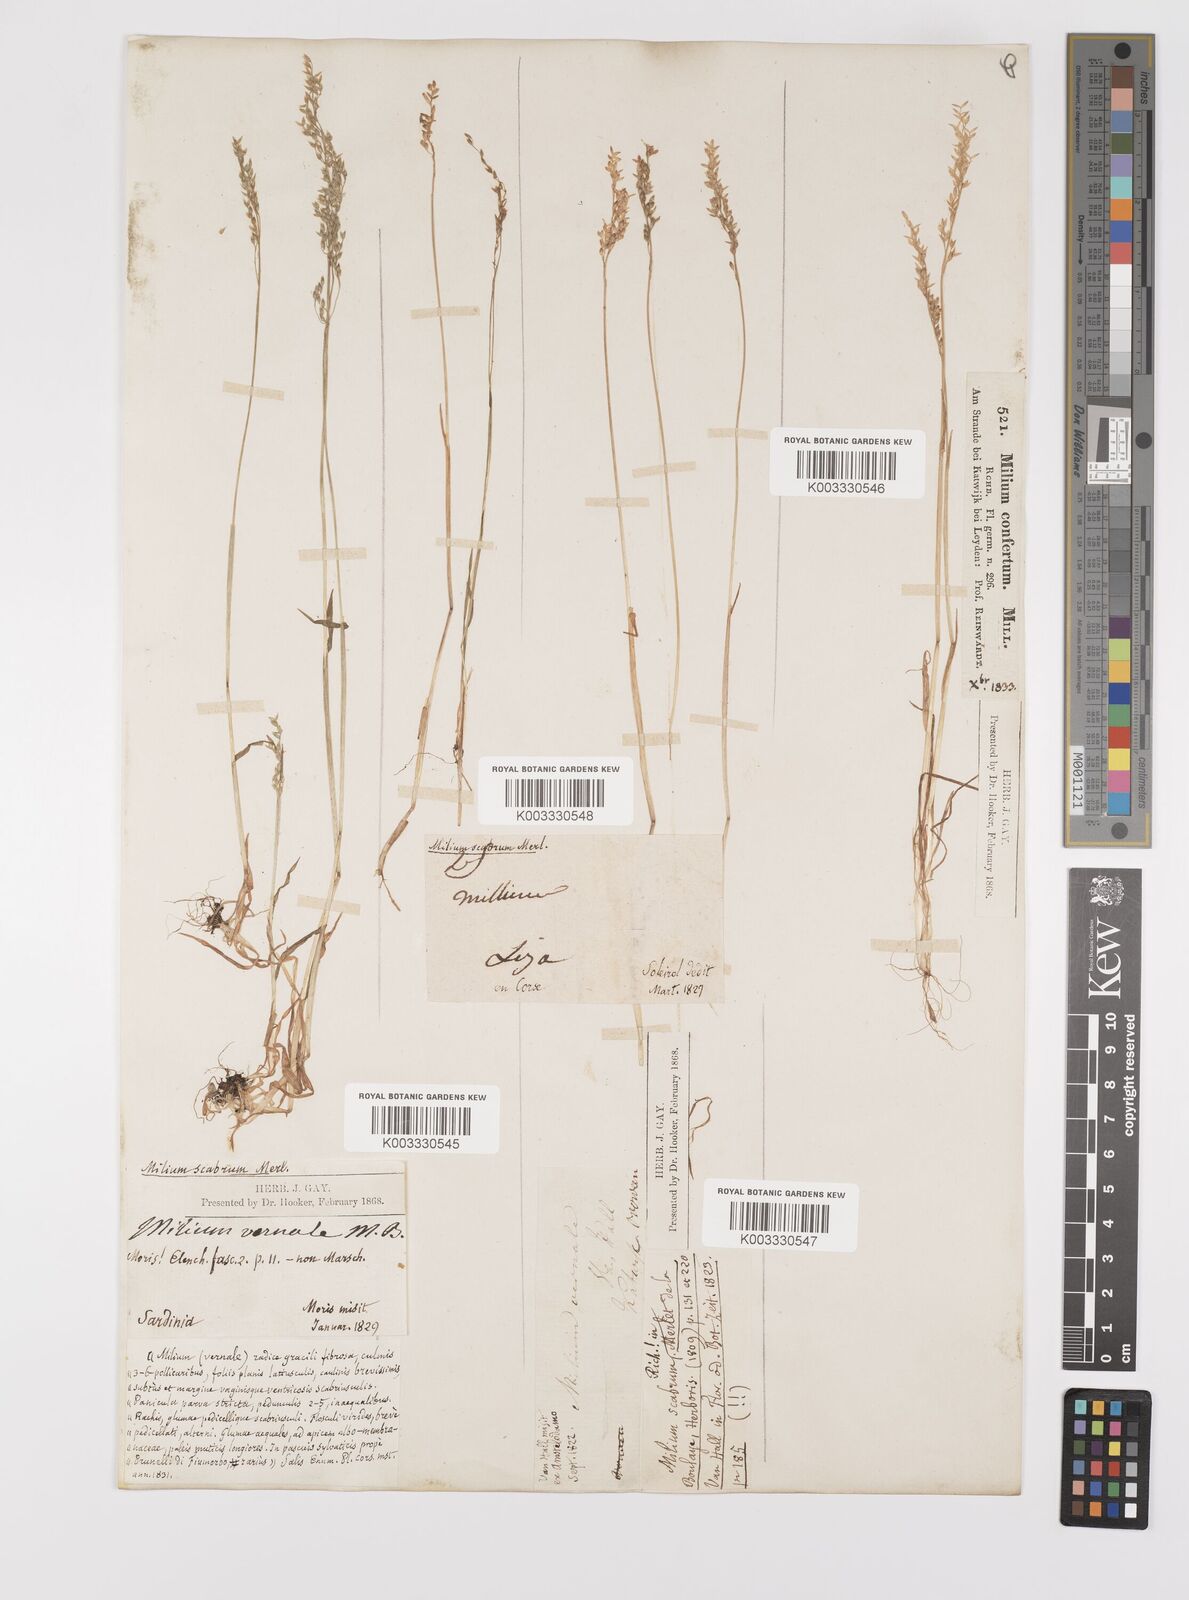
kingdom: Plantae
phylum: Tracheophyta
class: Liliopsida
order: Poales
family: Poaceae
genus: Milium
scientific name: Milium vernale
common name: Early millet
